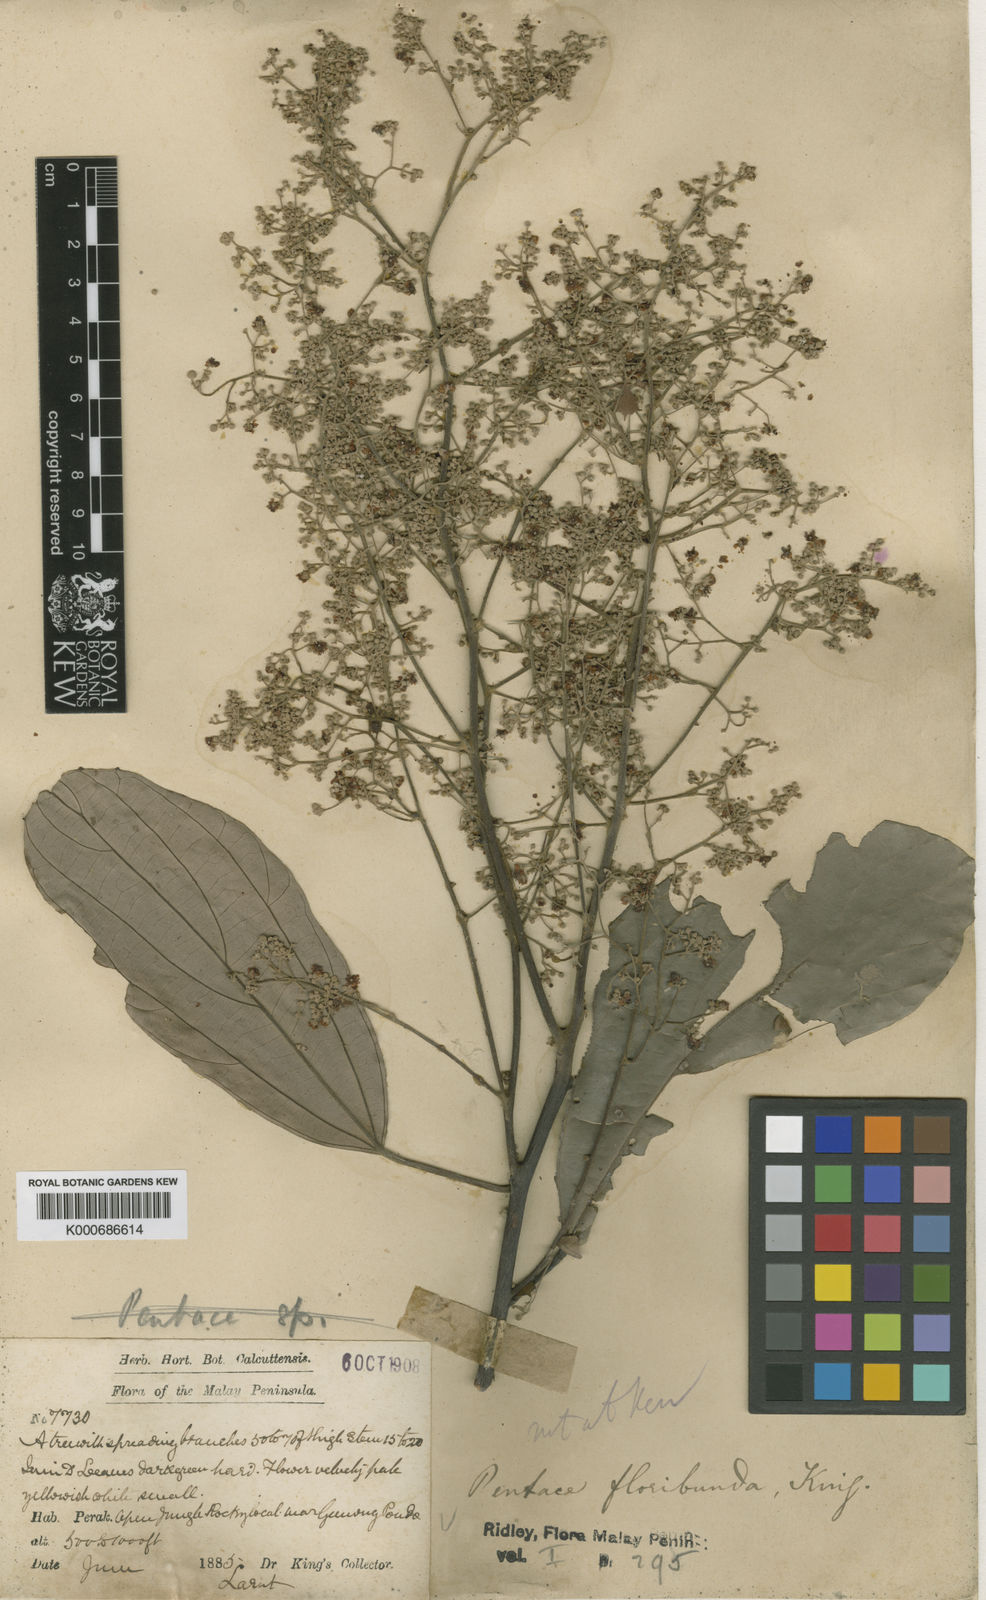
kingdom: Plantae
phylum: Tracheophyta
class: Magnoliopsida
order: Malvales
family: Malvaceae
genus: Pentace
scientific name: Pentace floribunda
